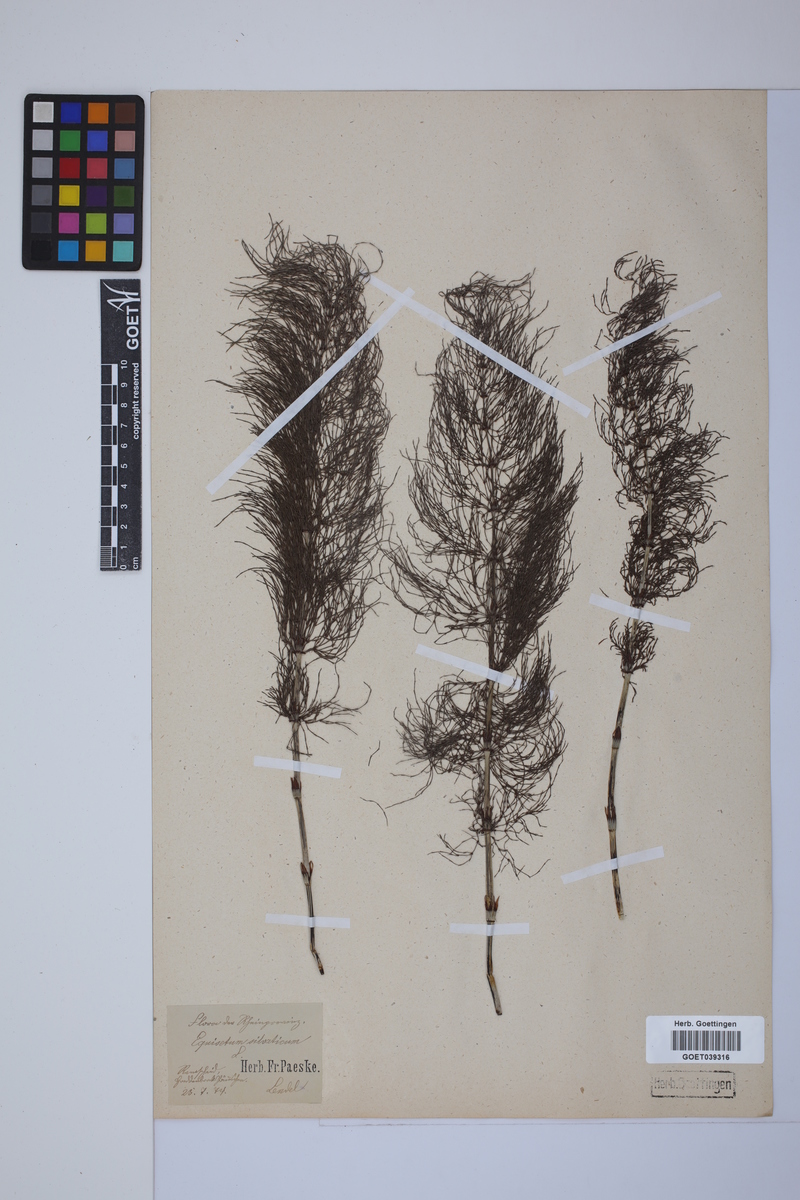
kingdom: Plantae
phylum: Tracheophyta
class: Polypodiopsida
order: Equisetales
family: Equisetaceae
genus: Equisetum
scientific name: Equisetum sylvaticum
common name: Wood horsetail
